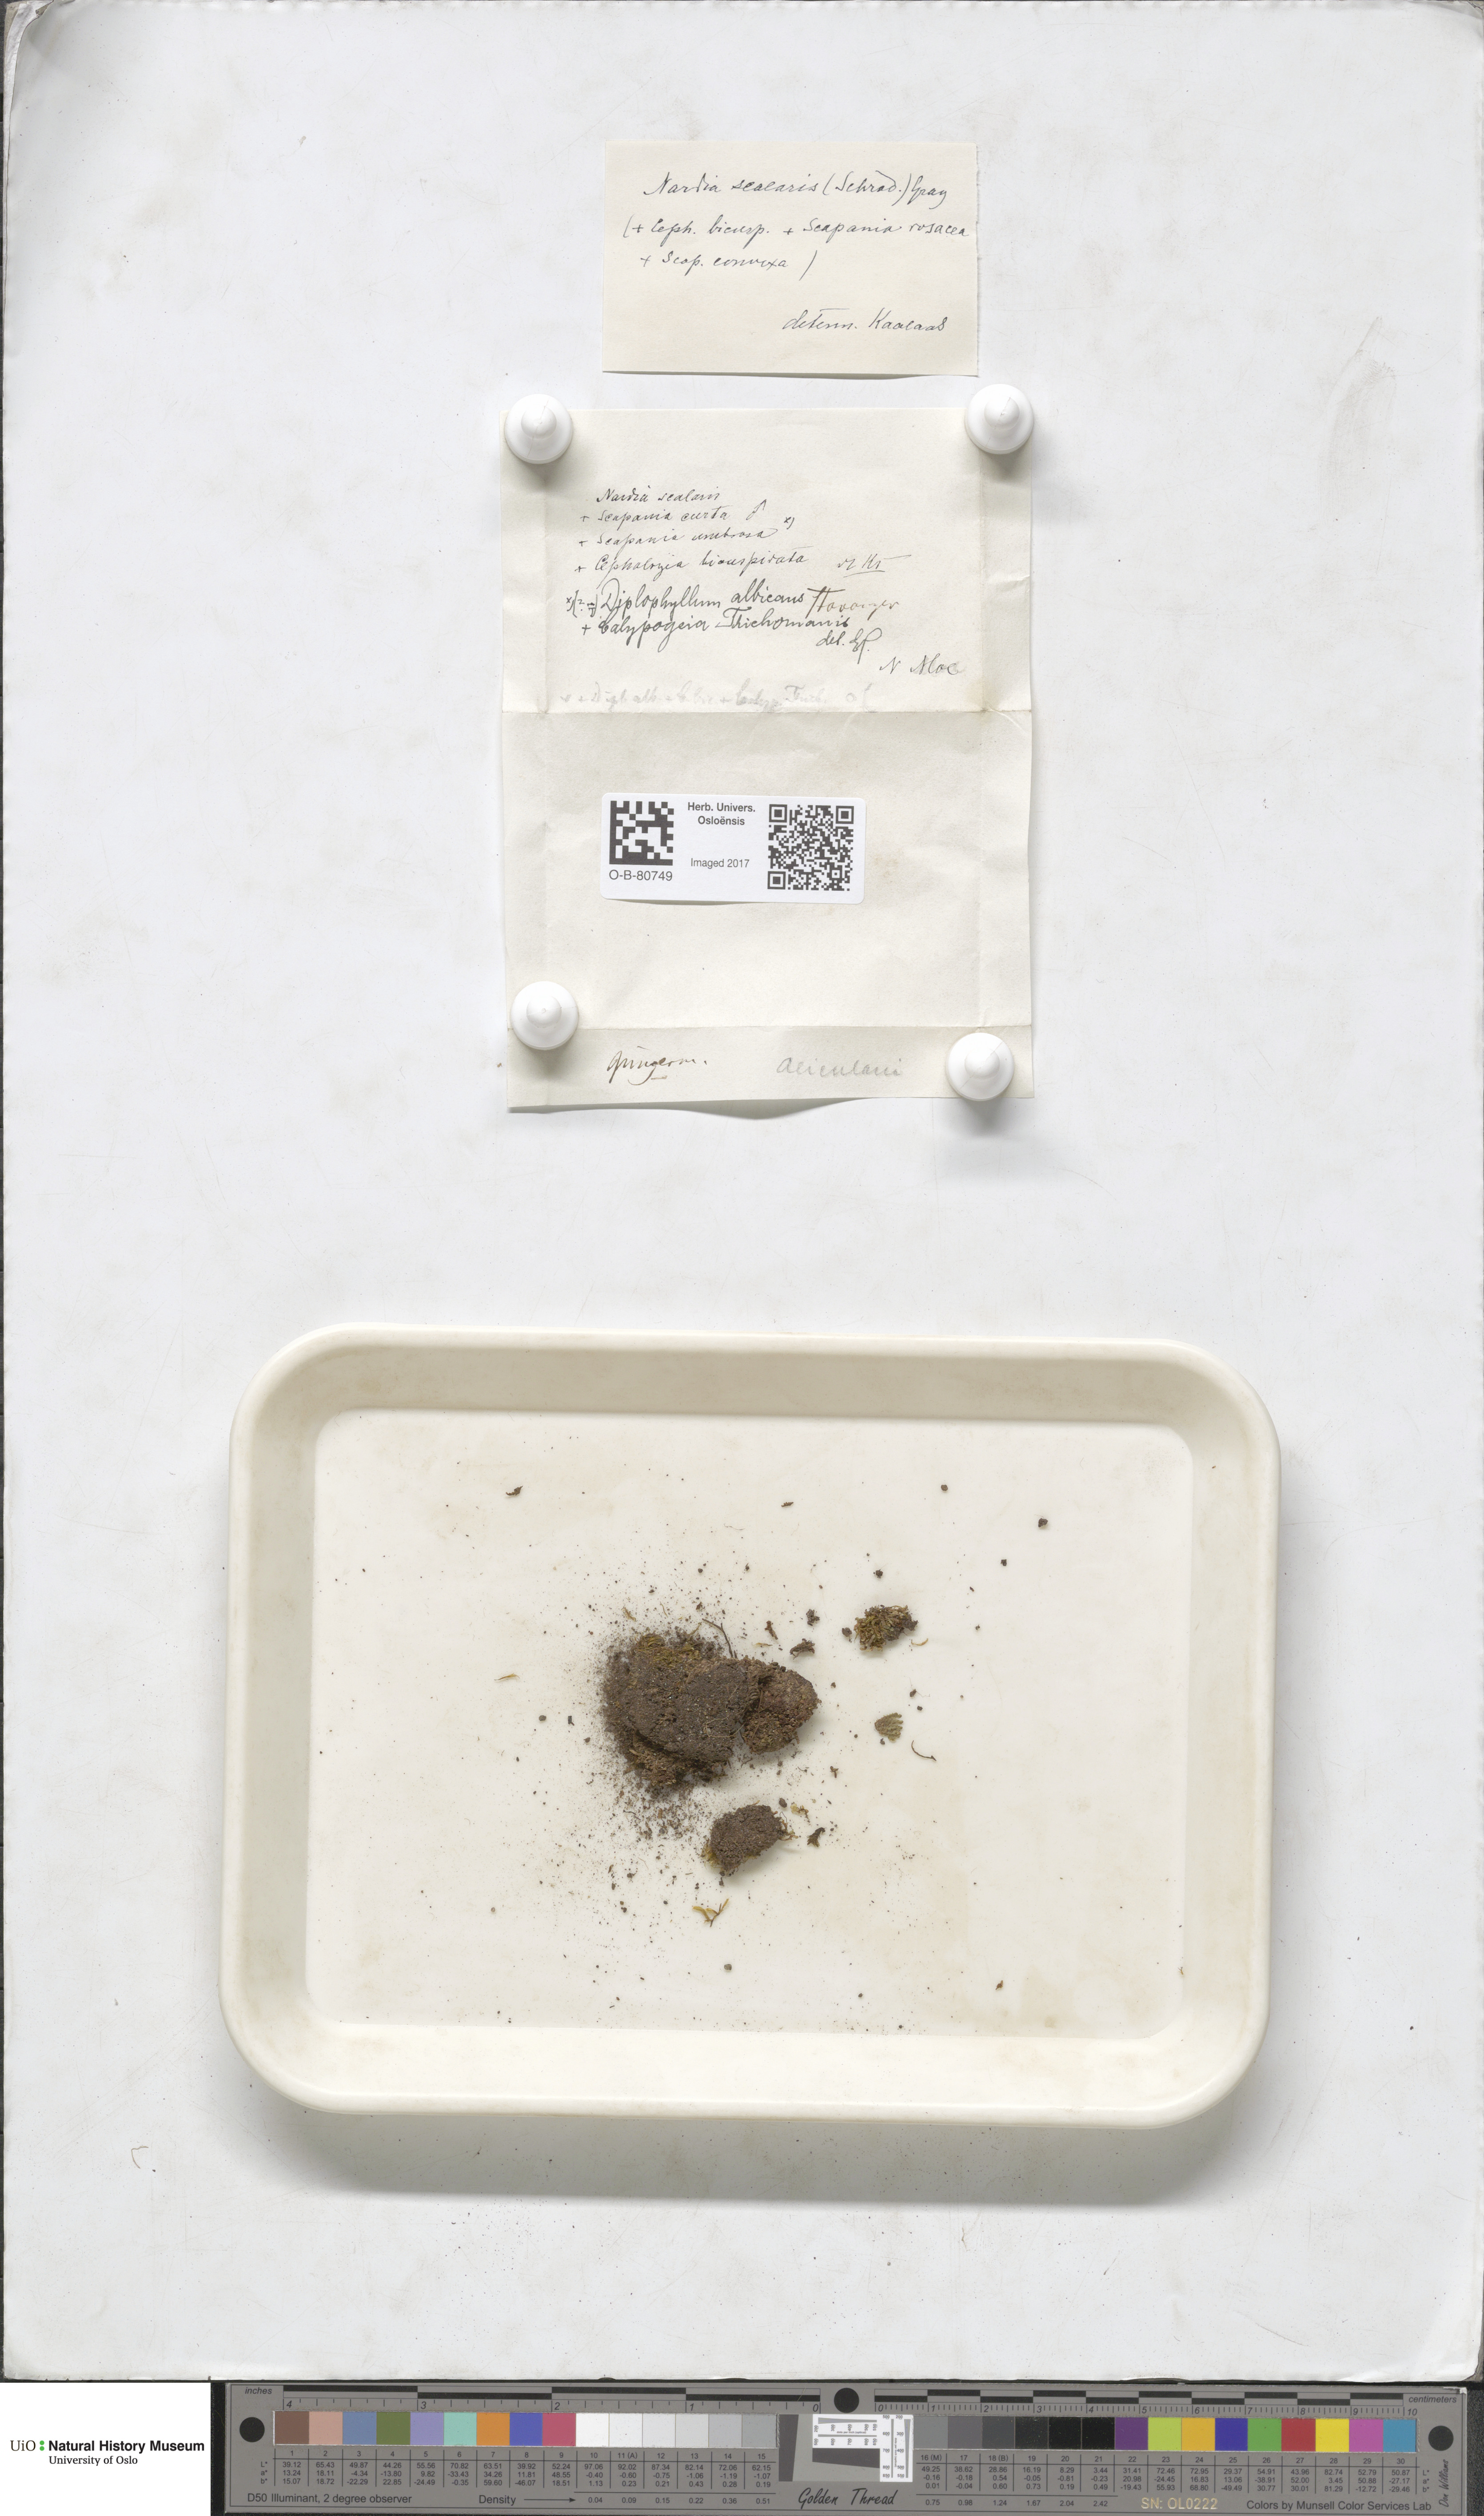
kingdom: Plantae
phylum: Marchantiophyta
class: Jungermanniopsida
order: Jungermanniales
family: Gymnomitriaceae
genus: Nardia
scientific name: Nardia scalaris
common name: Ladder flapwort
